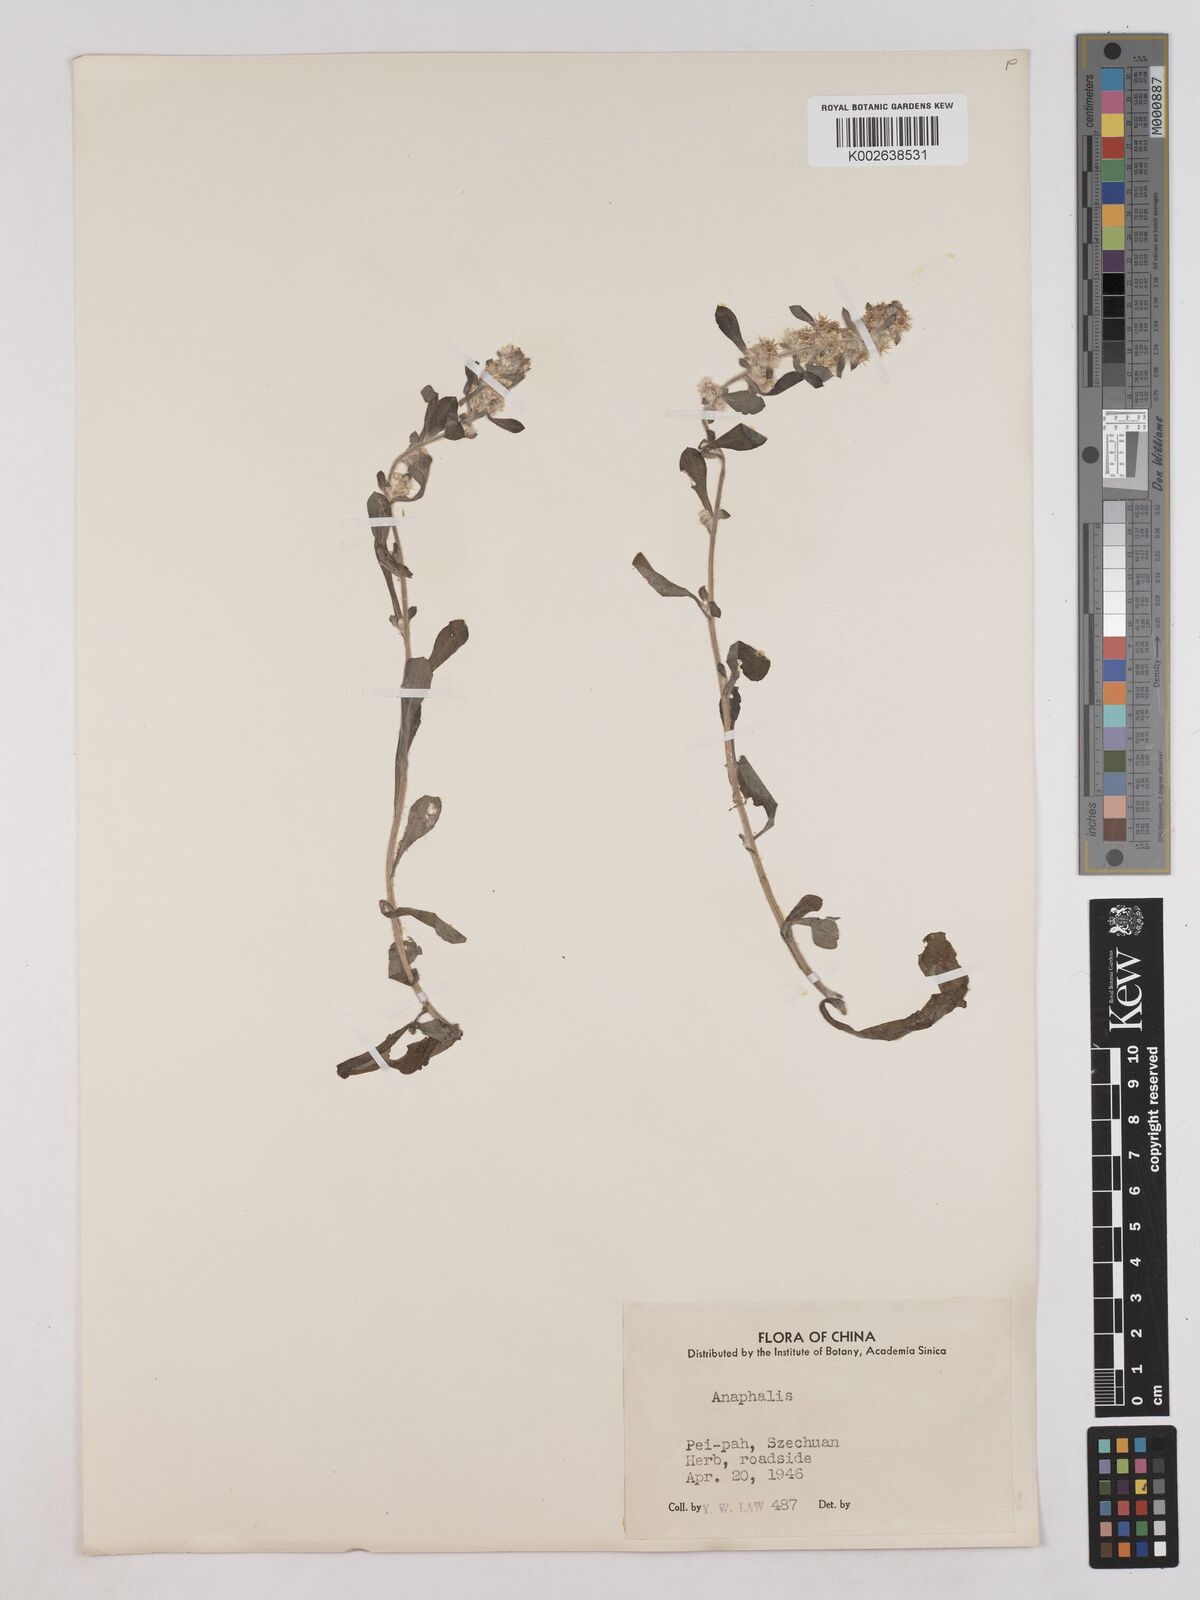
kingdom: Plantae
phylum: Tracheophyta
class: Magnoliopsida
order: Asterales
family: Asteraceae
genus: Anaphalis
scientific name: Anaphalis
